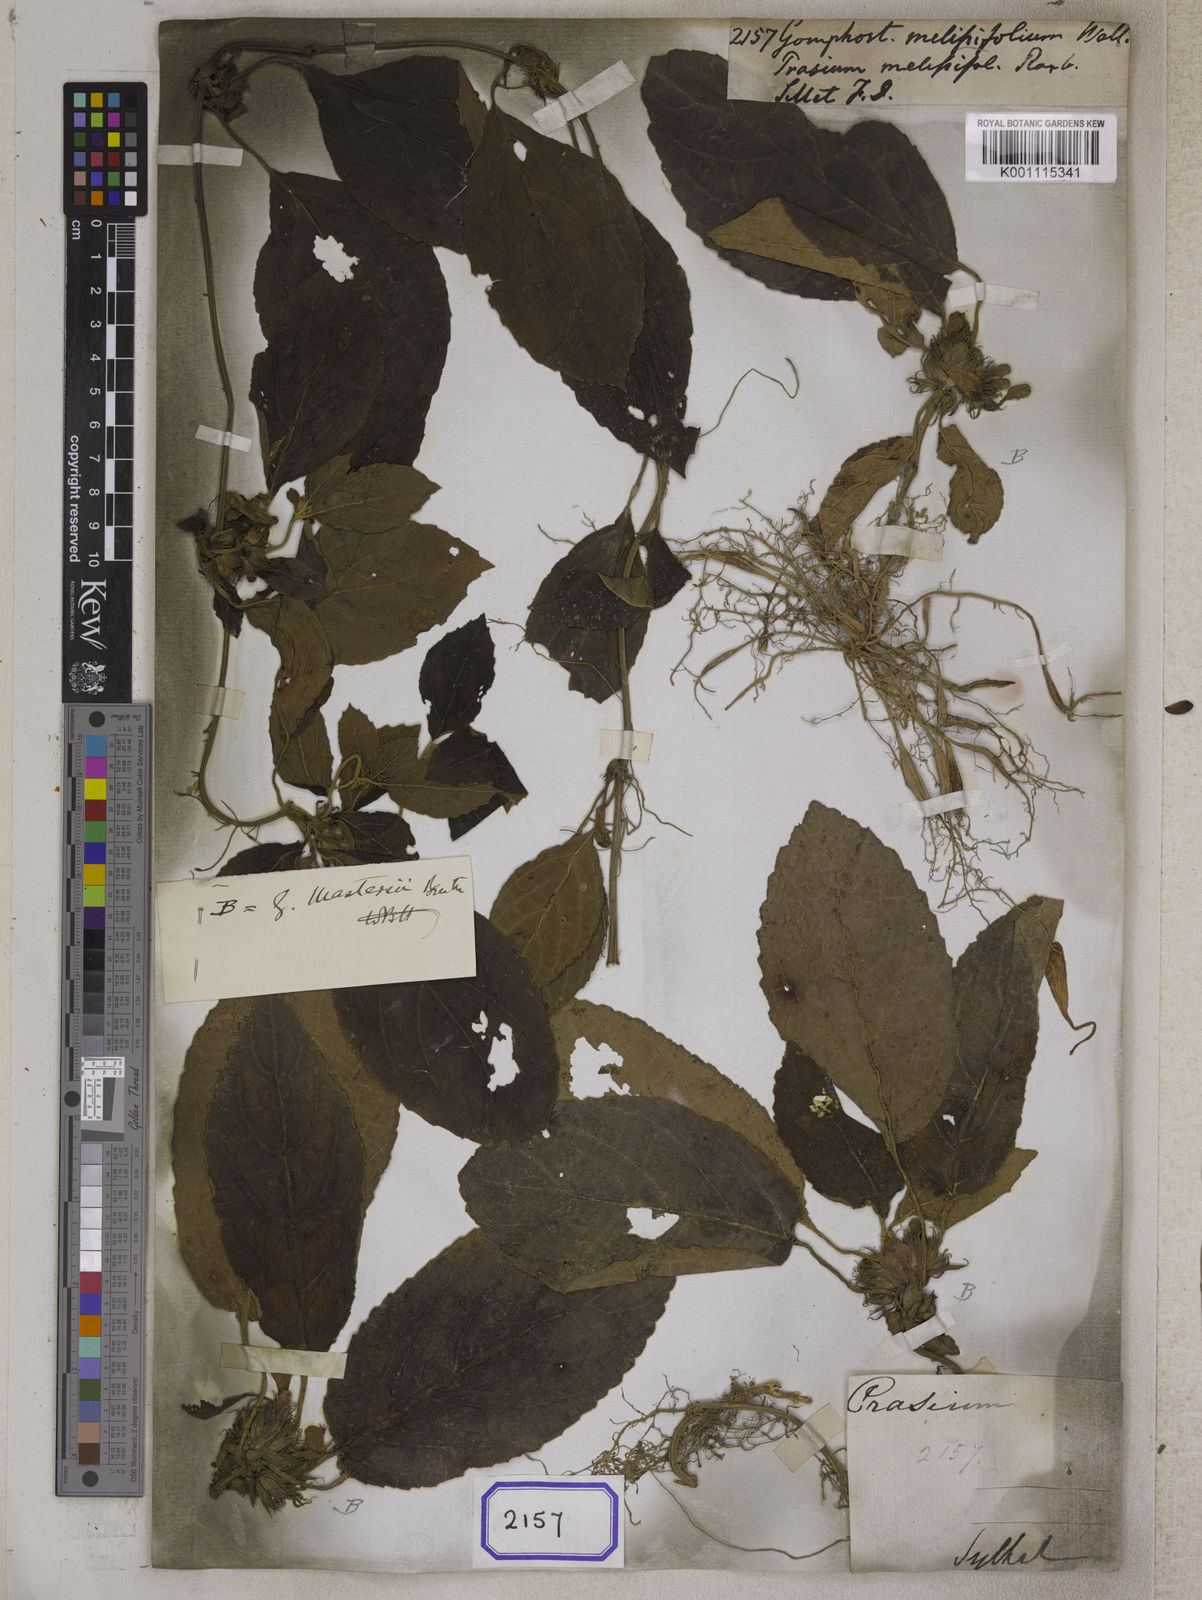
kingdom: Plantae
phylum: Tracheophyta
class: Magnoliopsida
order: Lamiales
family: Lamiaceae
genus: Gomphostemma
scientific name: Gomphostemma
